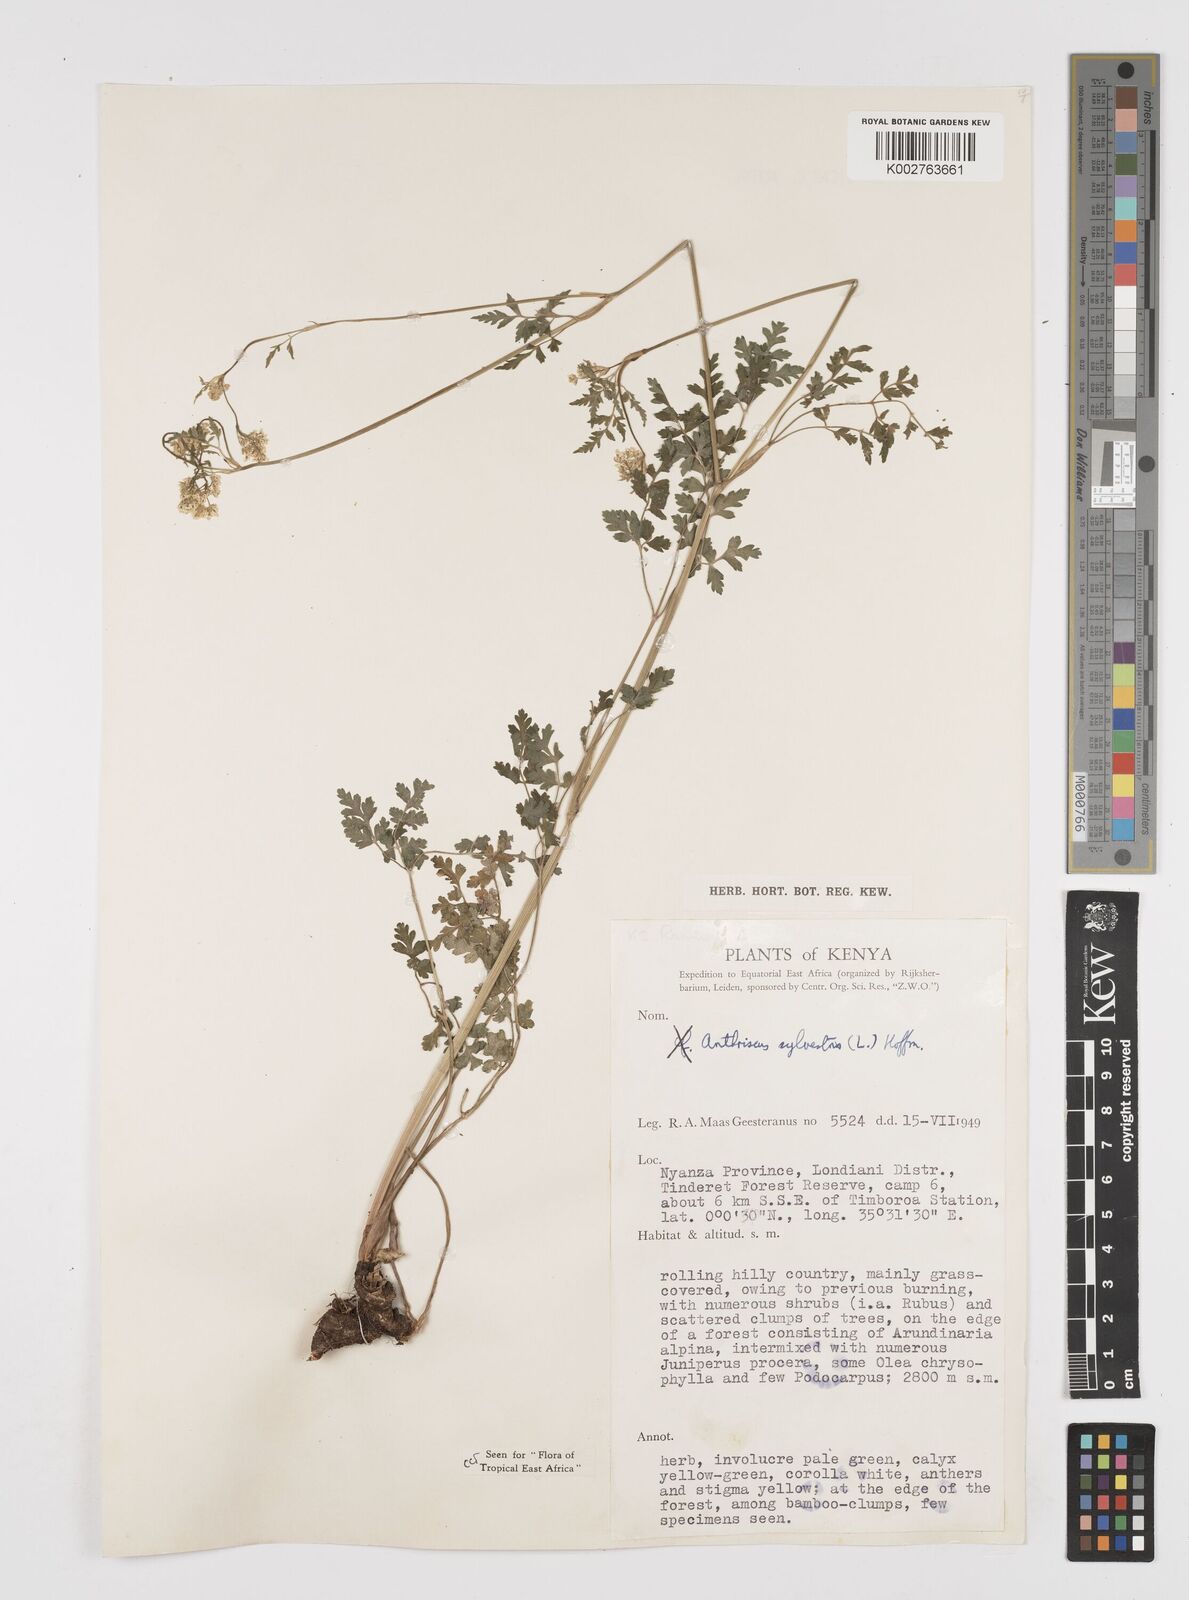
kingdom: Plantae
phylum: Tracheophyta
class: Magnoliopsida
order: Apiales
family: Apiaceae
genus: Anthriscus
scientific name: Anthriscus sylvestris
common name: Cow parsley
